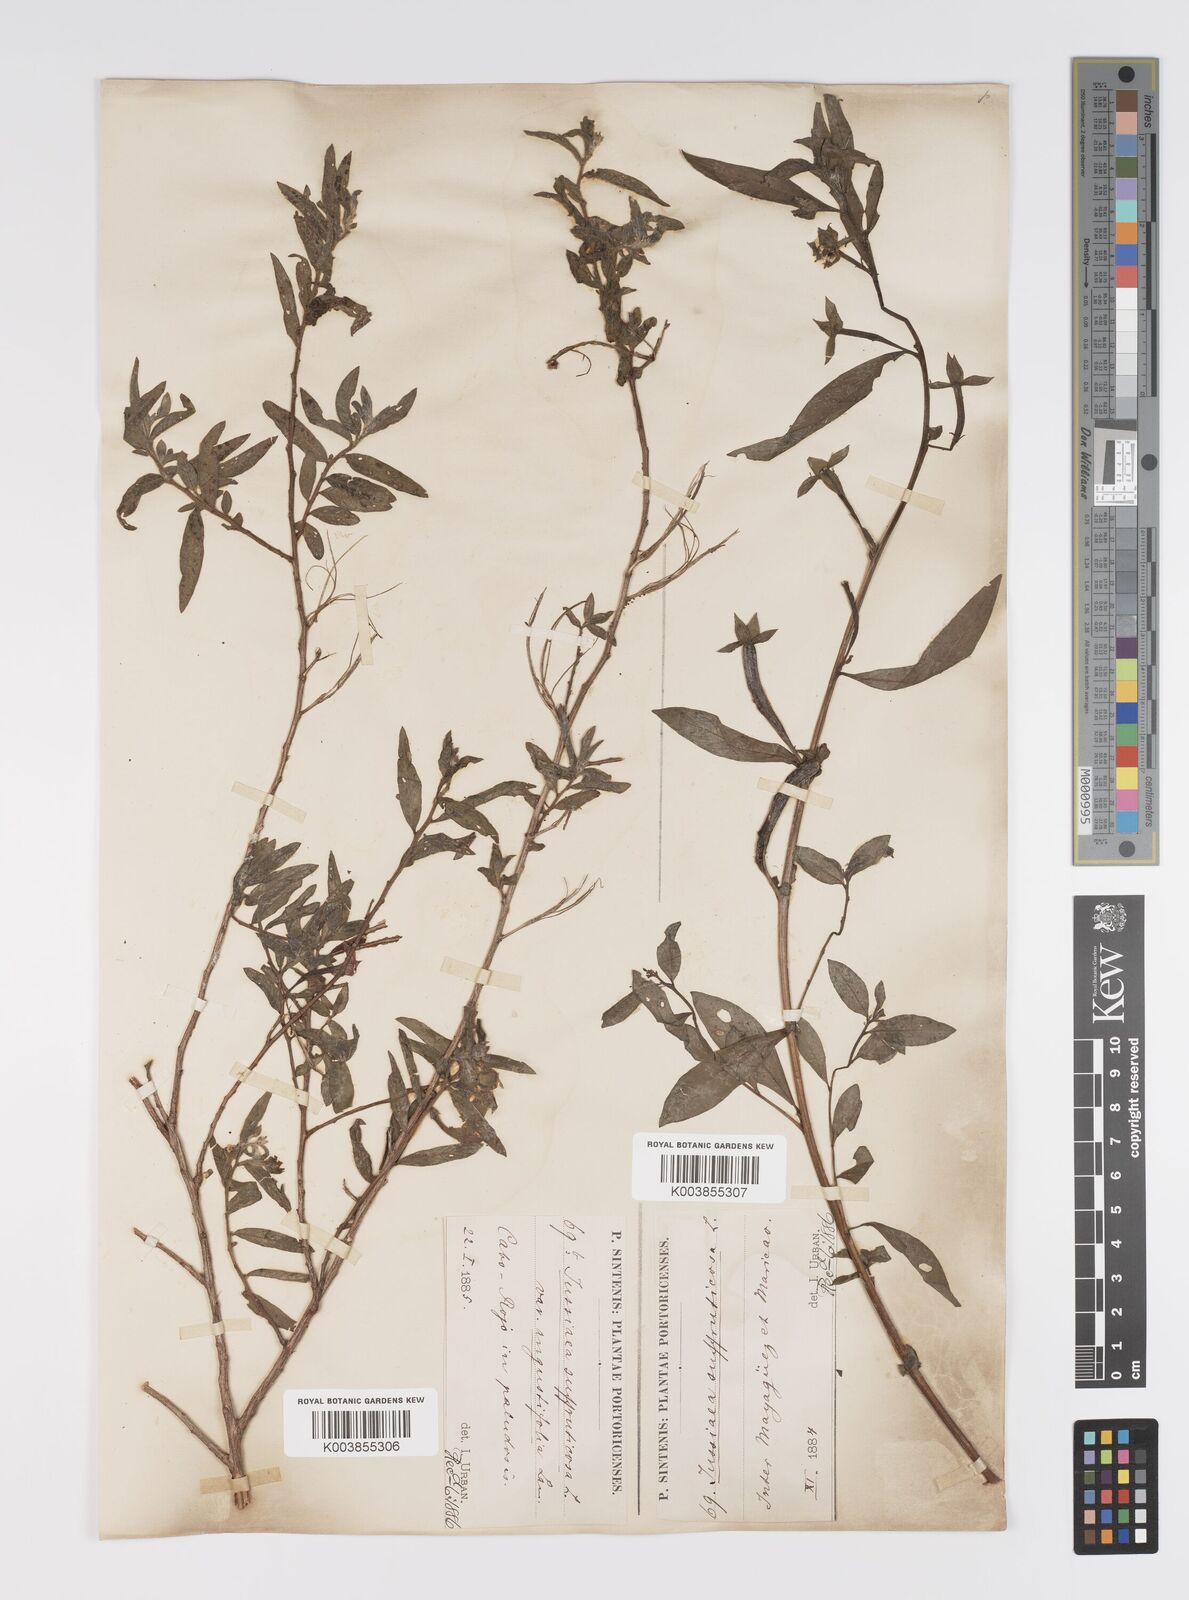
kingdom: Plantae
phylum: Tracheophyta
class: Magnoliopsida
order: Myrtales
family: Onagraceae
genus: Ludwigia
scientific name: Ludwigia
